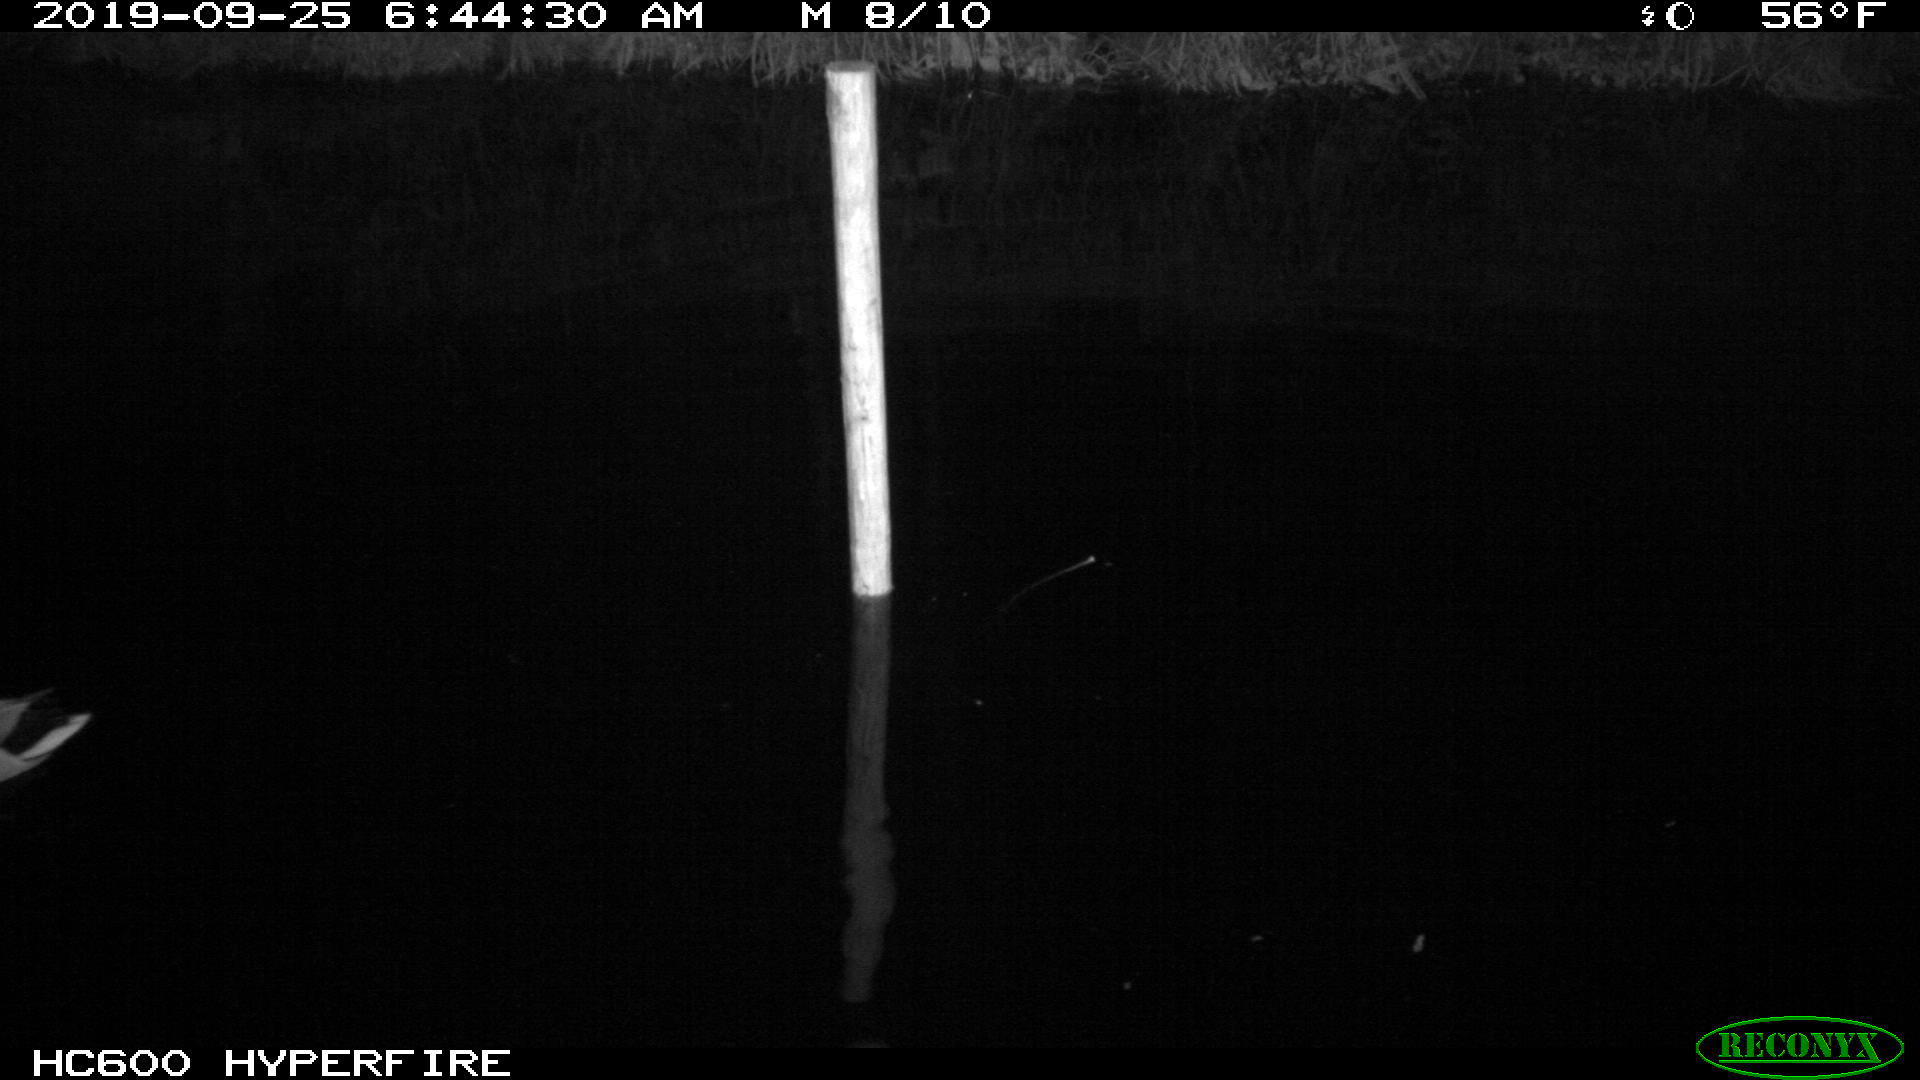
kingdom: Animalia
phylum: Chordata
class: Aves
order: Anseriformes
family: Anatidae
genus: Anas
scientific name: Anas platyrhynchos
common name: Mallard
